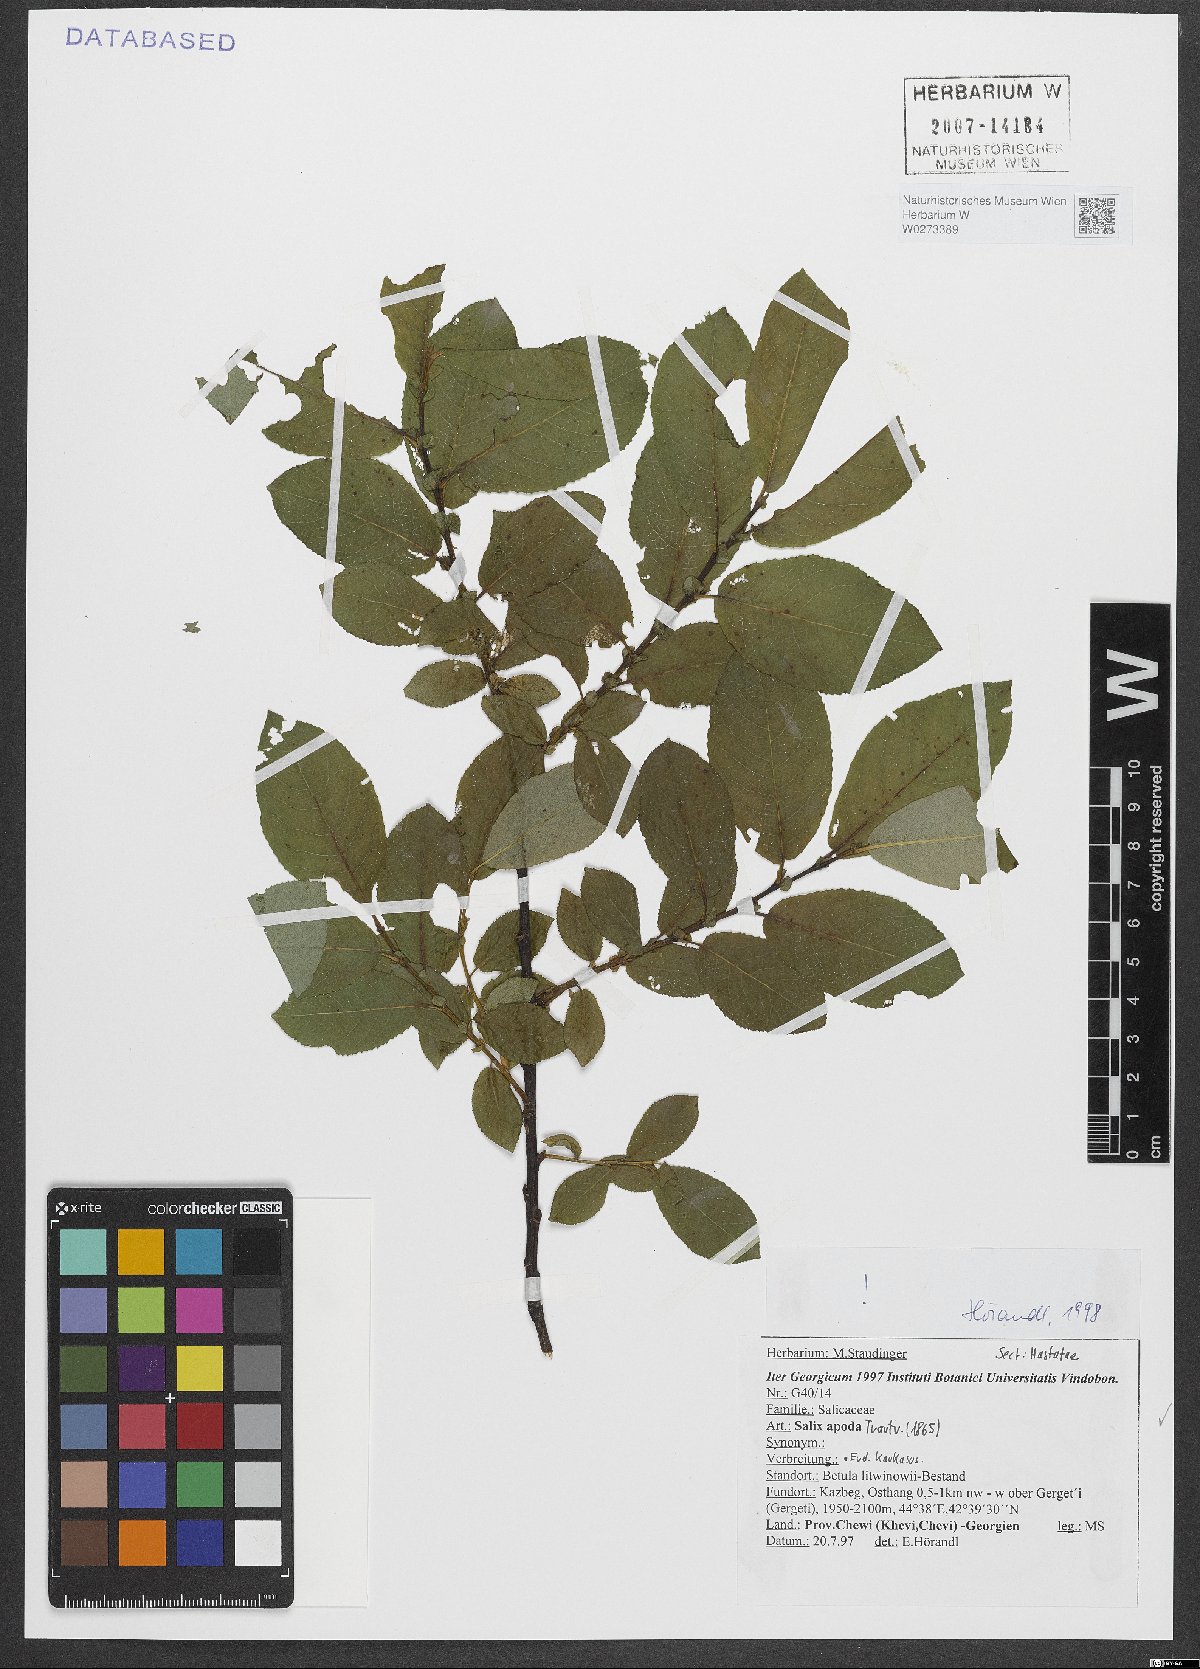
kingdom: Plantae
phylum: Tracheophyta
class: Magnoliopsida
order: Malpighiales
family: Salicaceae
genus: Salix
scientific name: Salix apoda
